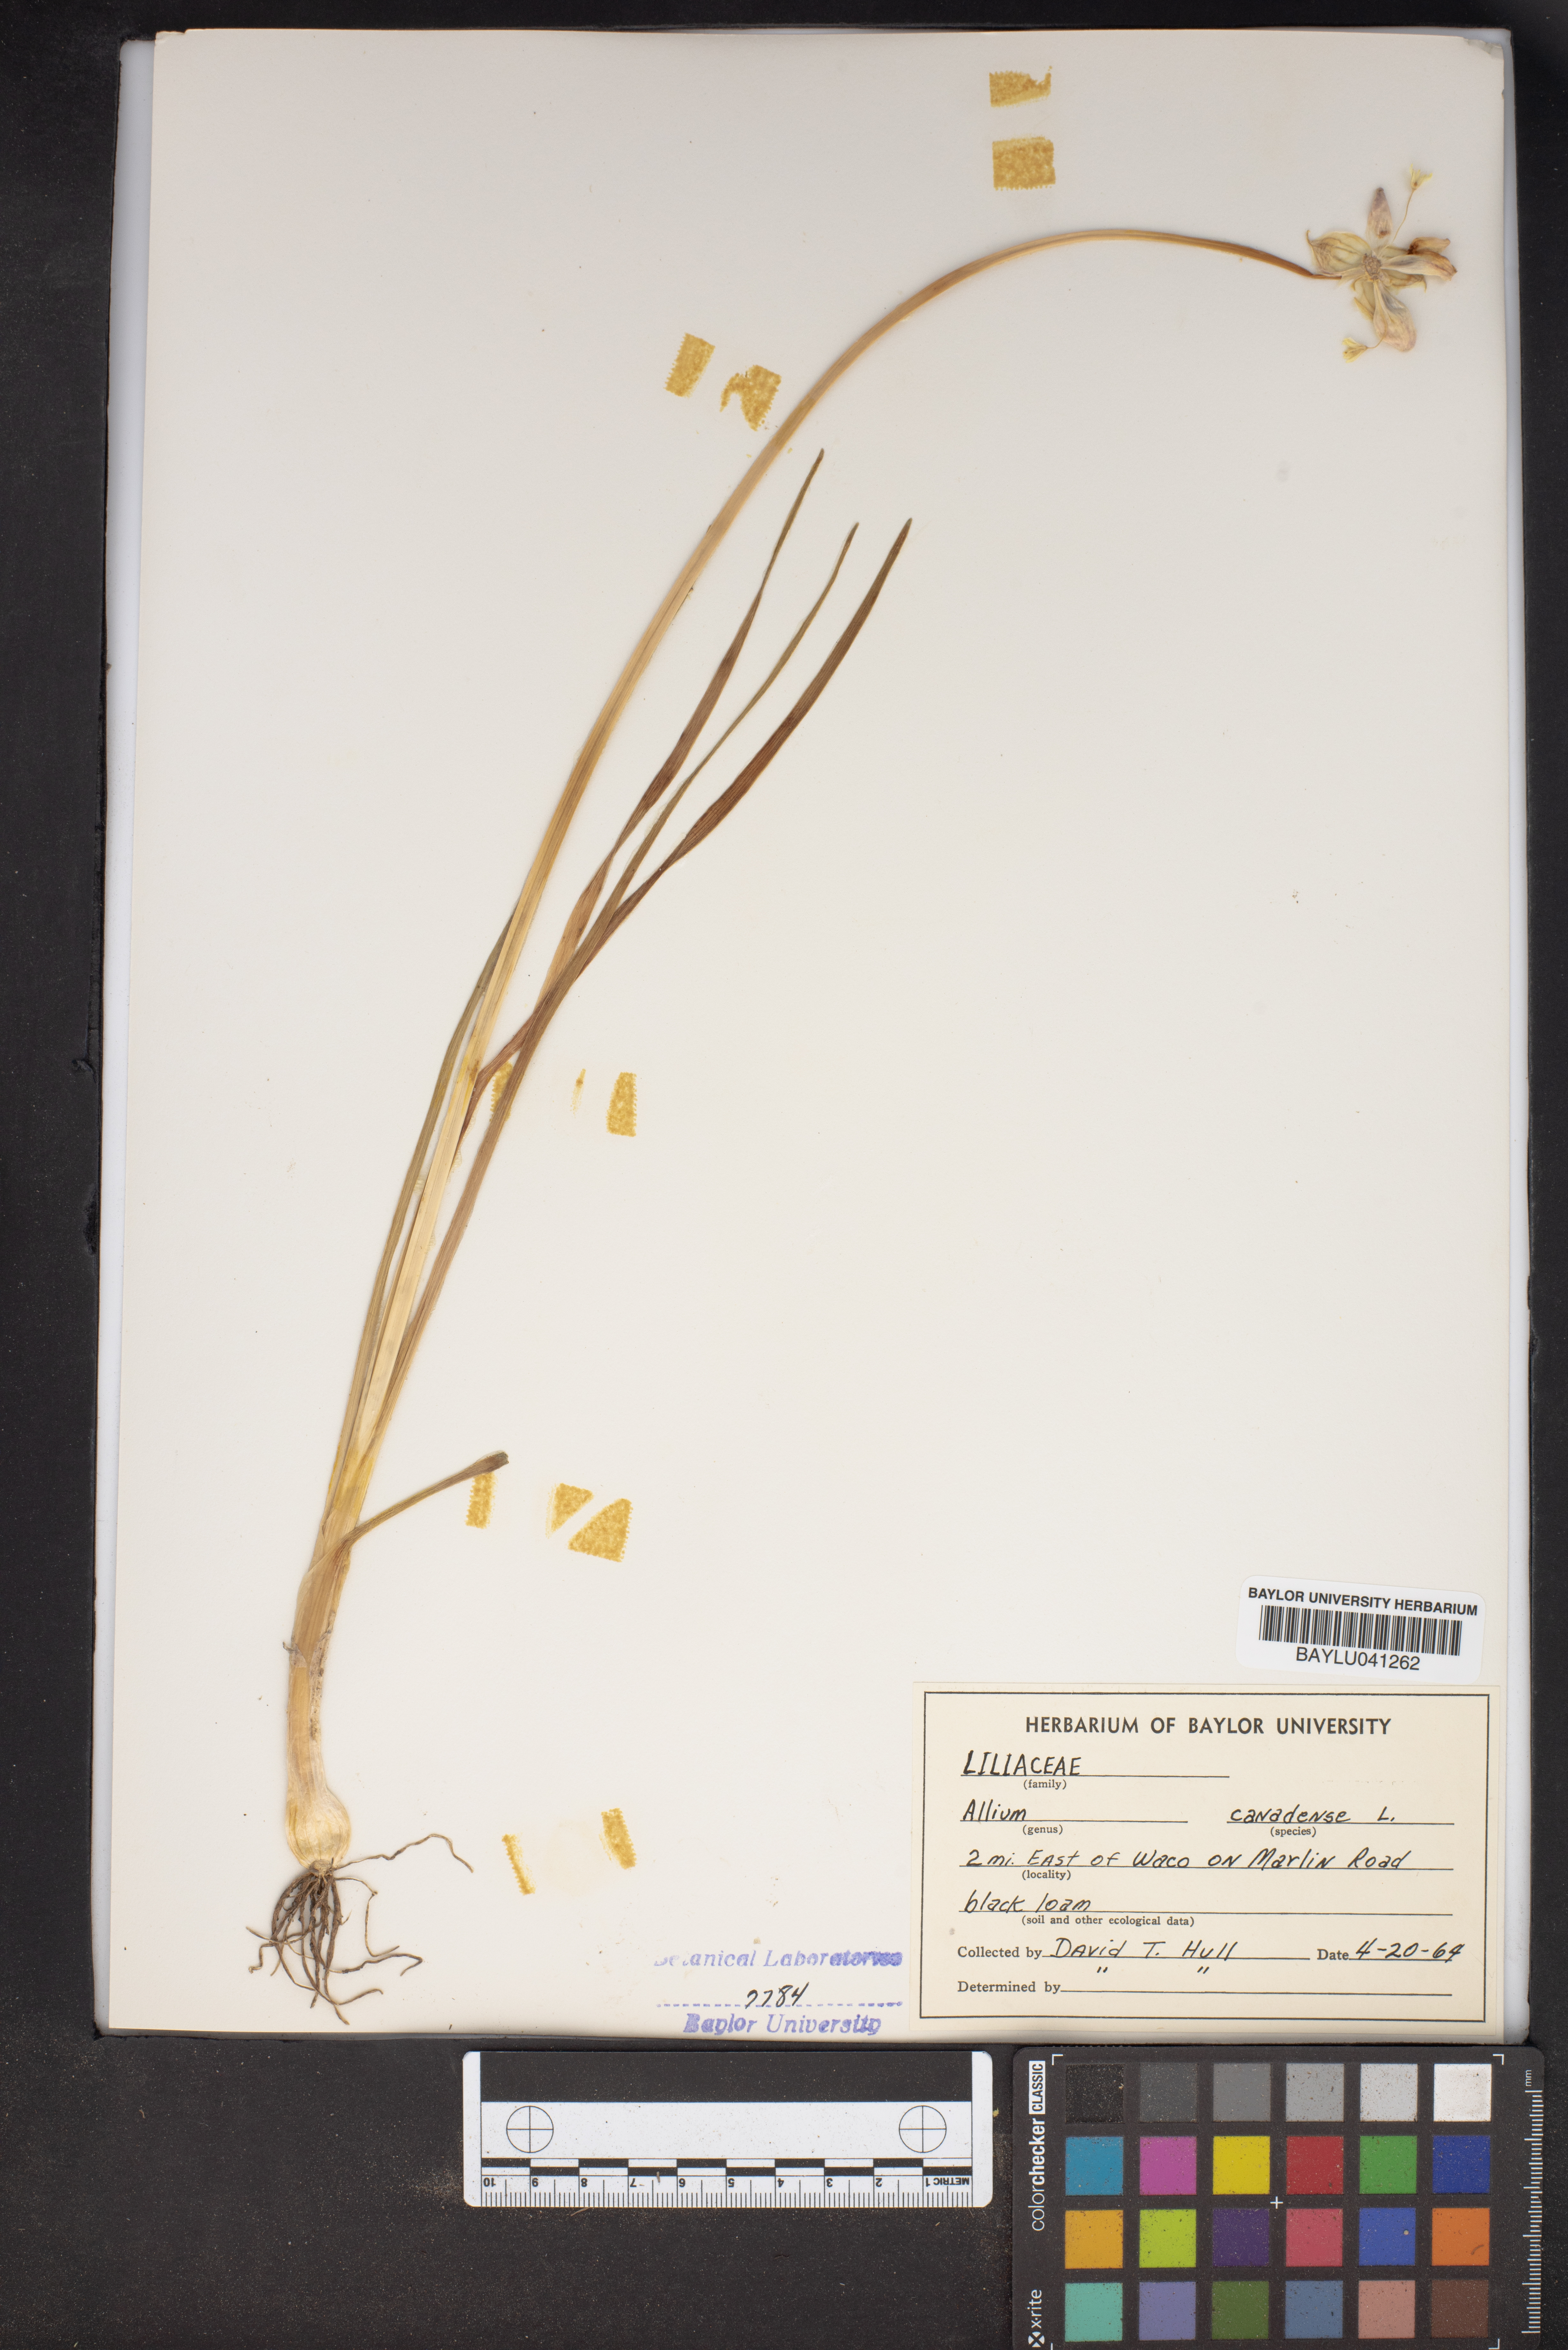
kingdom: Plantae
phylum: Tracheophyta
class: Liliopsida
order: Asparagales
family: Amaryllidaceae
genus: Allium
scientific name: Allium canadense
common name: Meadow garlic
